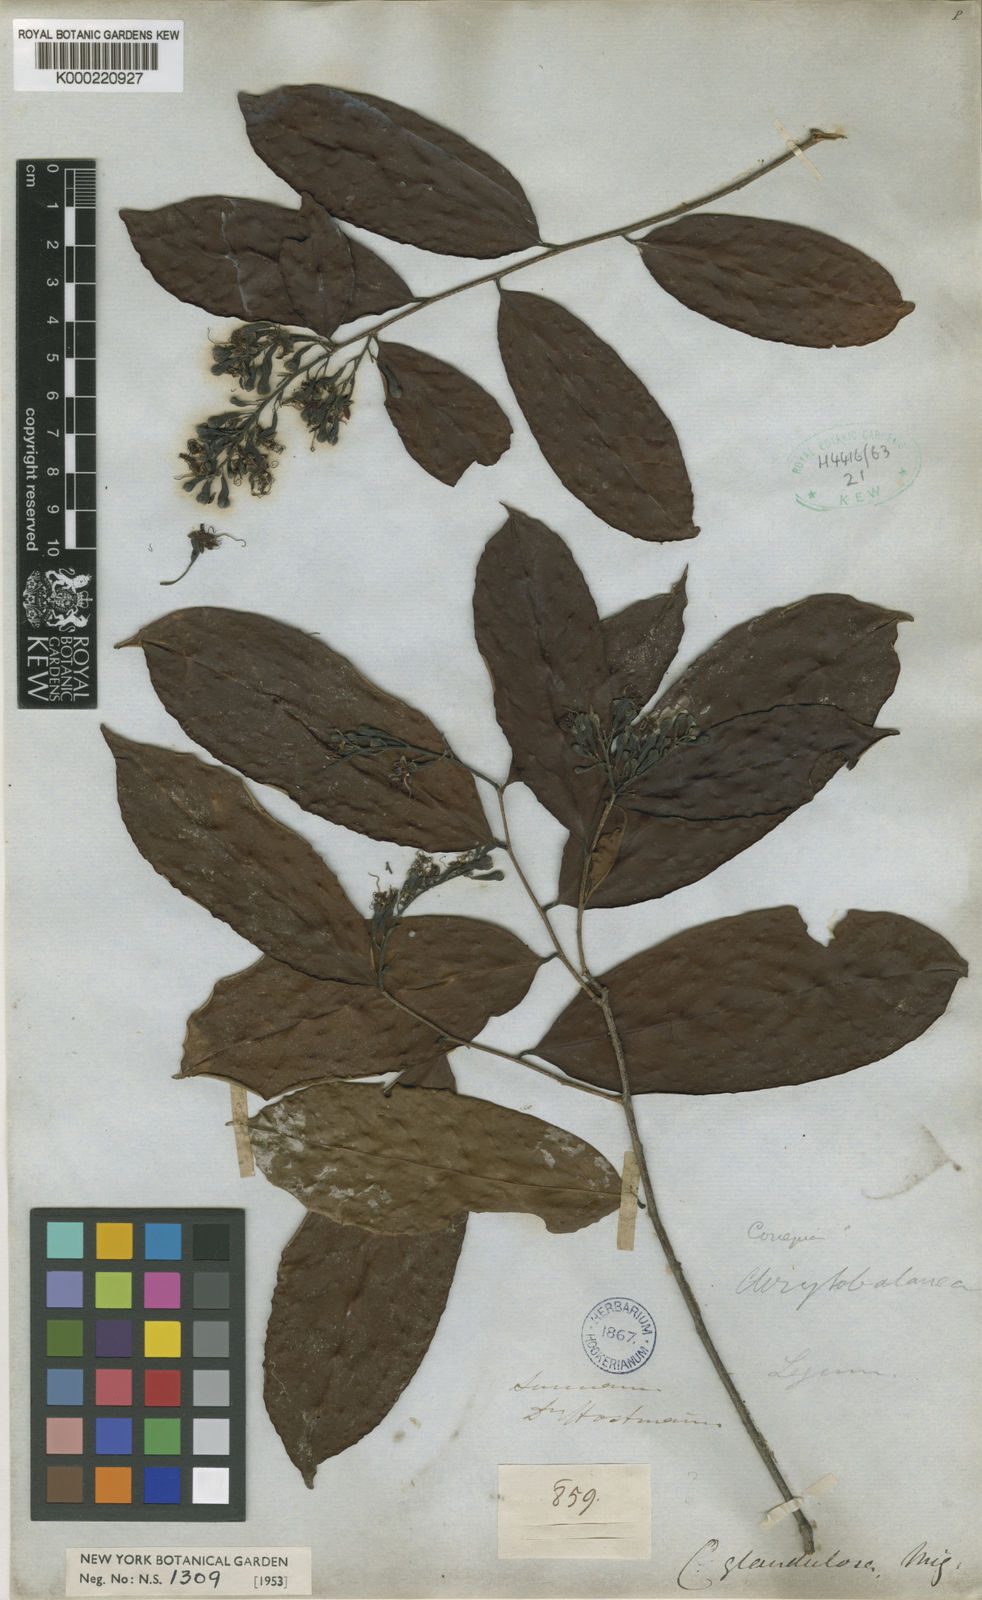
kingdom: Plantae
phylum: Tracheophyta
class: Magnoliopsida
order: Malpighiales
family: Chrysobalanaceae
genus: Couepia
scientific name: Couepia guianensis
